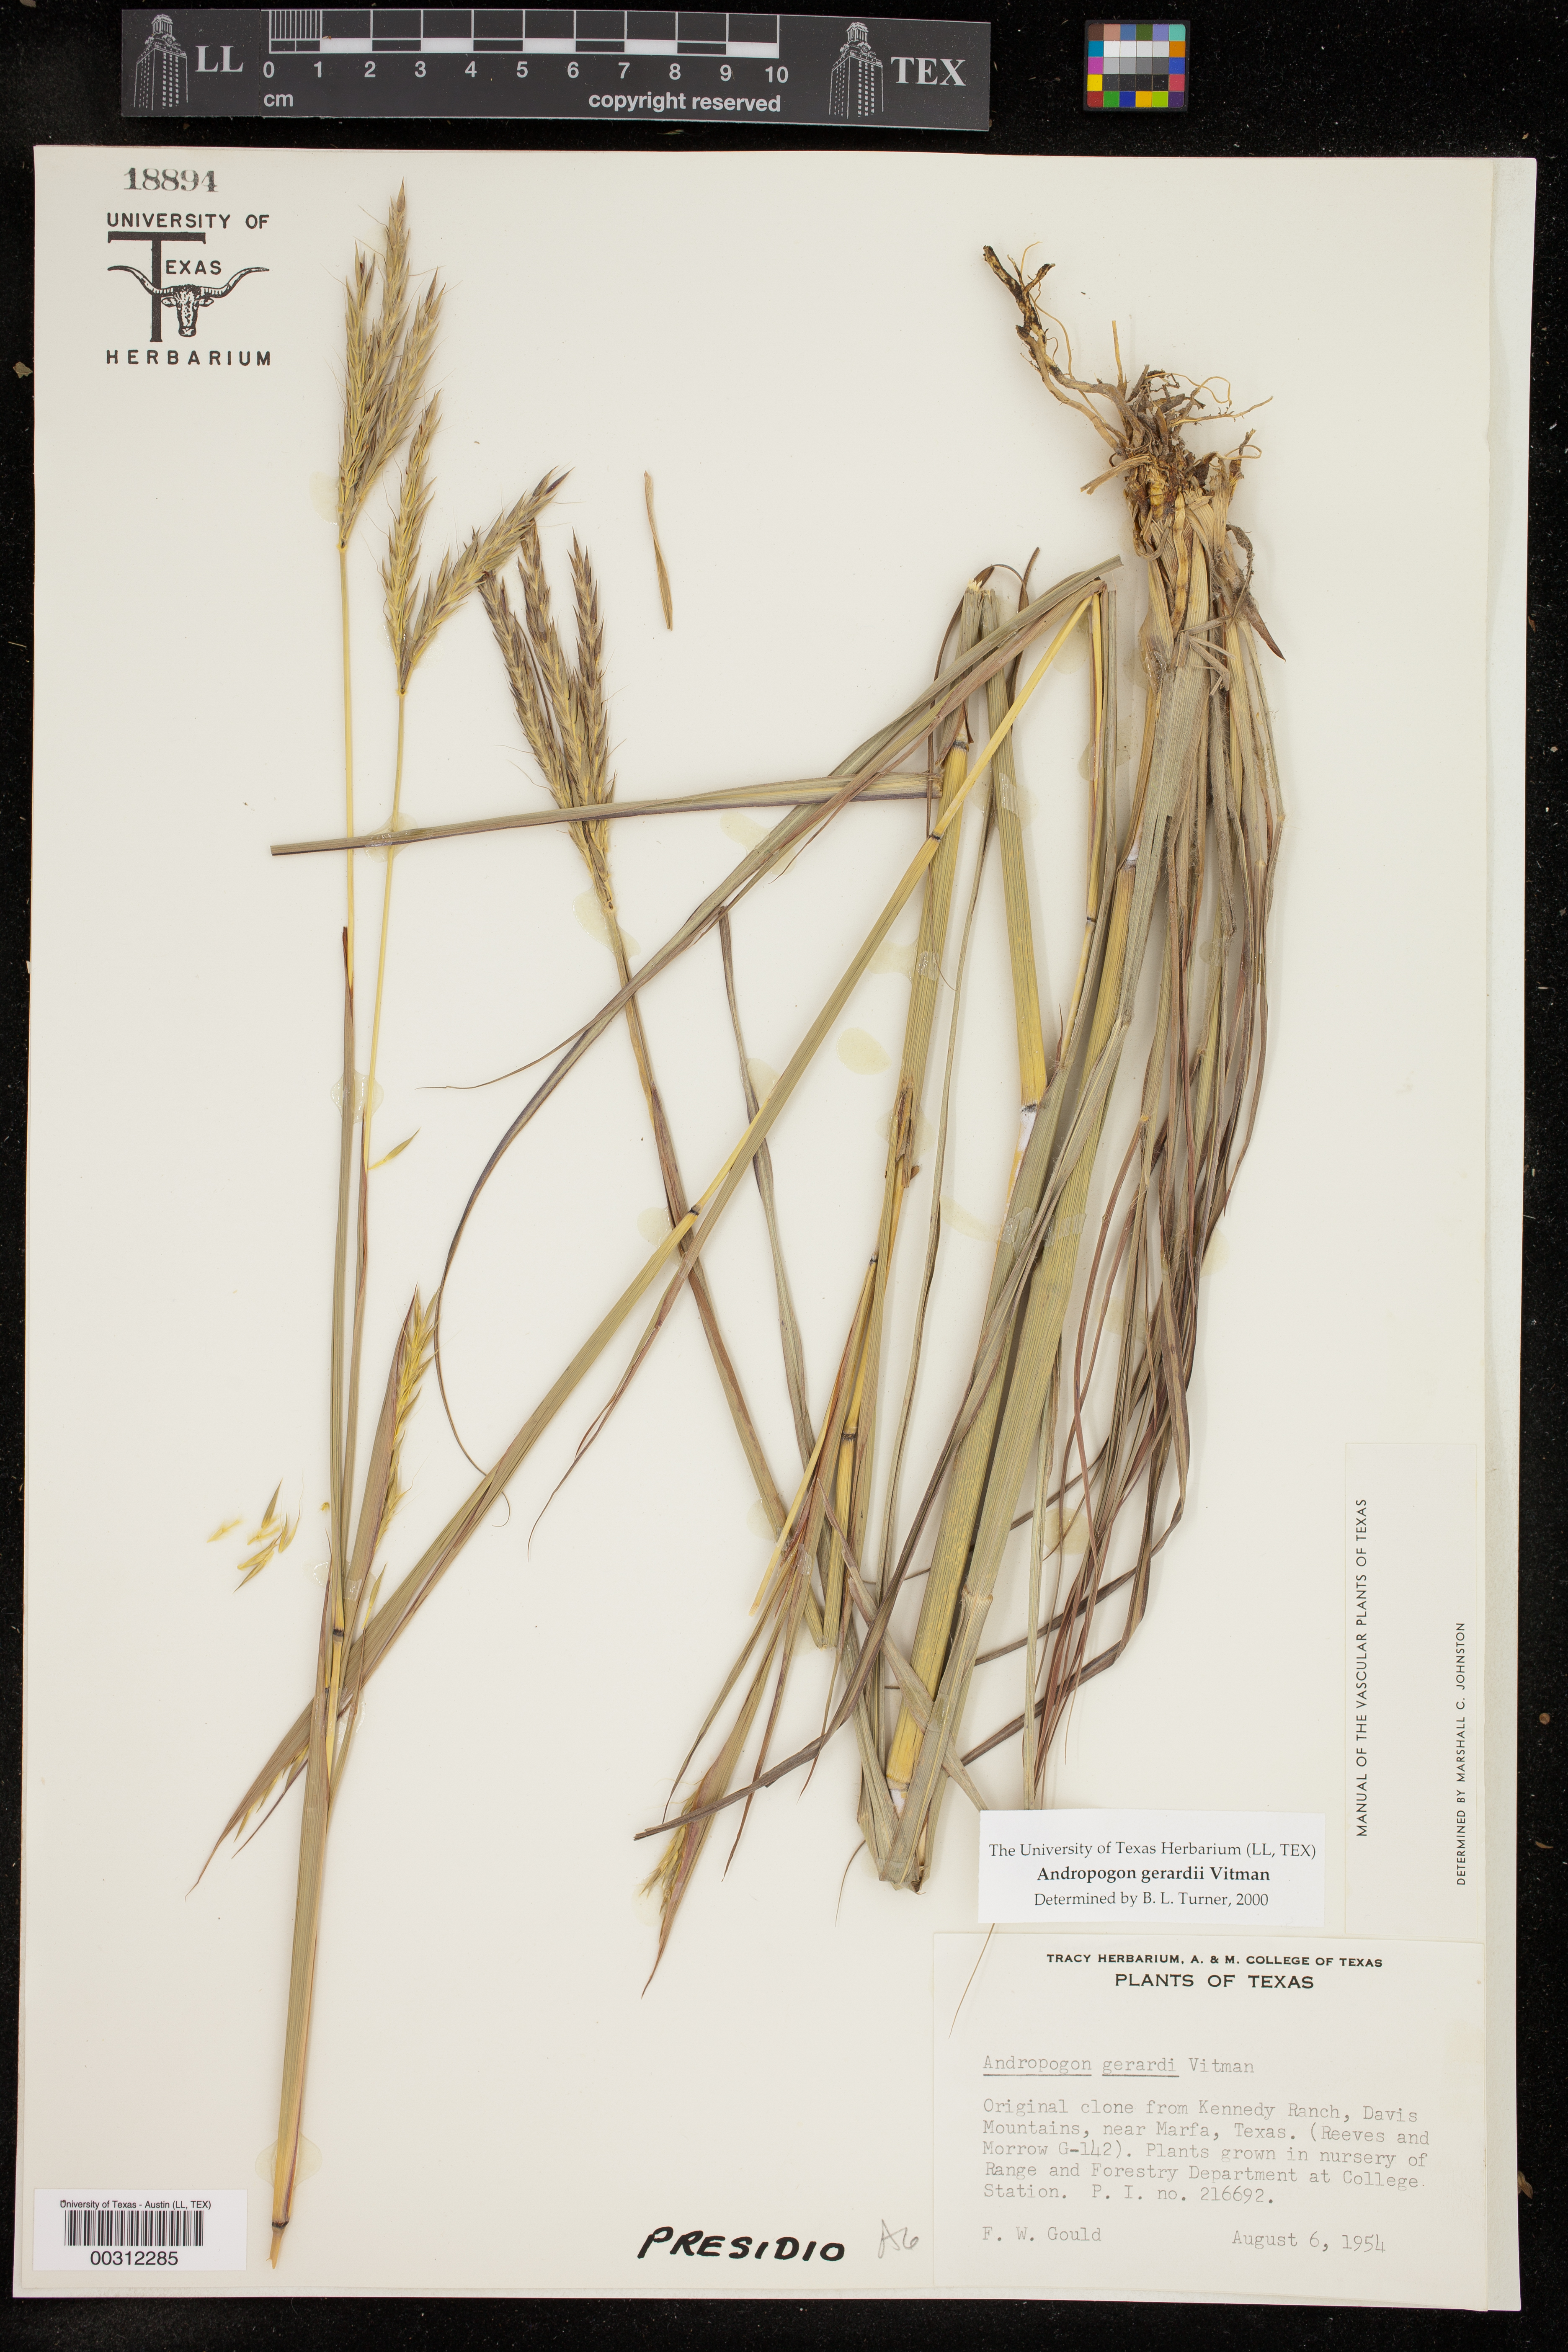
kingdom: Plantae
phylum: Tracheophyta
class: Liliopsida
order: Poales
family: Poaceae
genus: Andropogon
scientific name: Andropogon gerardi
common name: Big bluestem
